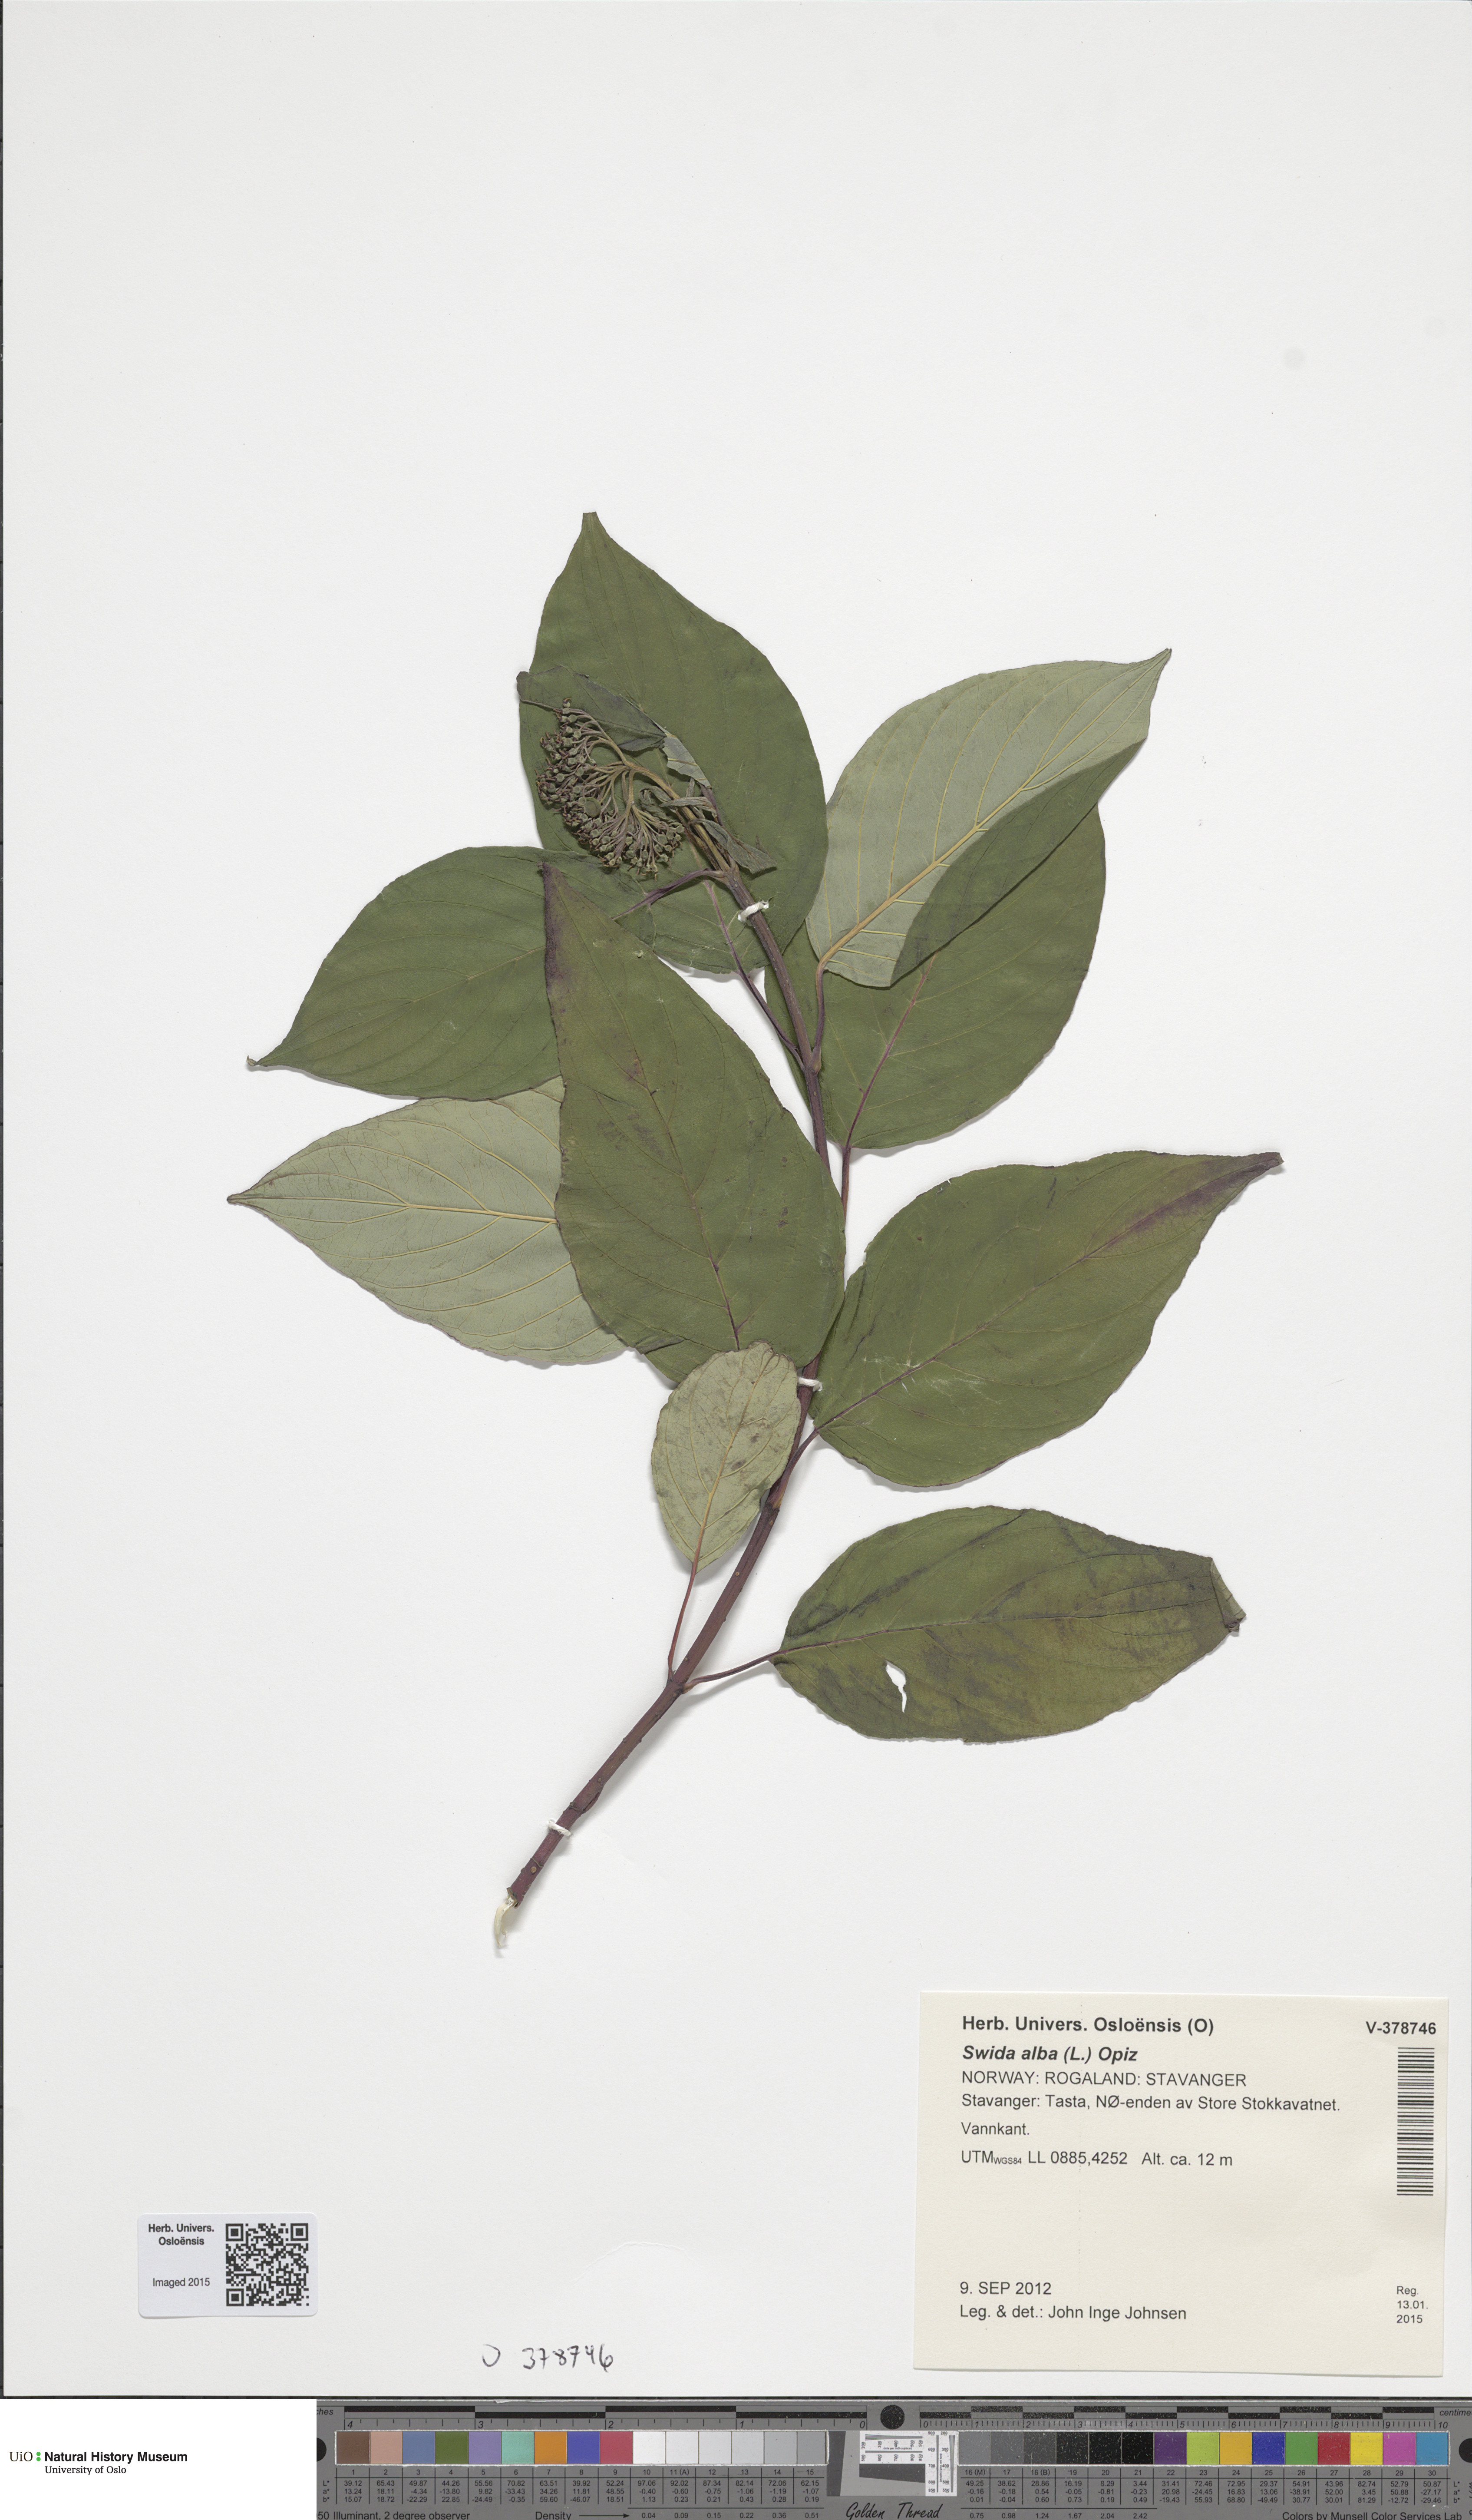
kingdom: Plantae
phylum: Tracheophyta
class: Magnoliopsida
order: Cornales
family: Cornaceae
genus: Cornus
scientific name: Cornus sericea
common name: Red-osier dogwood
